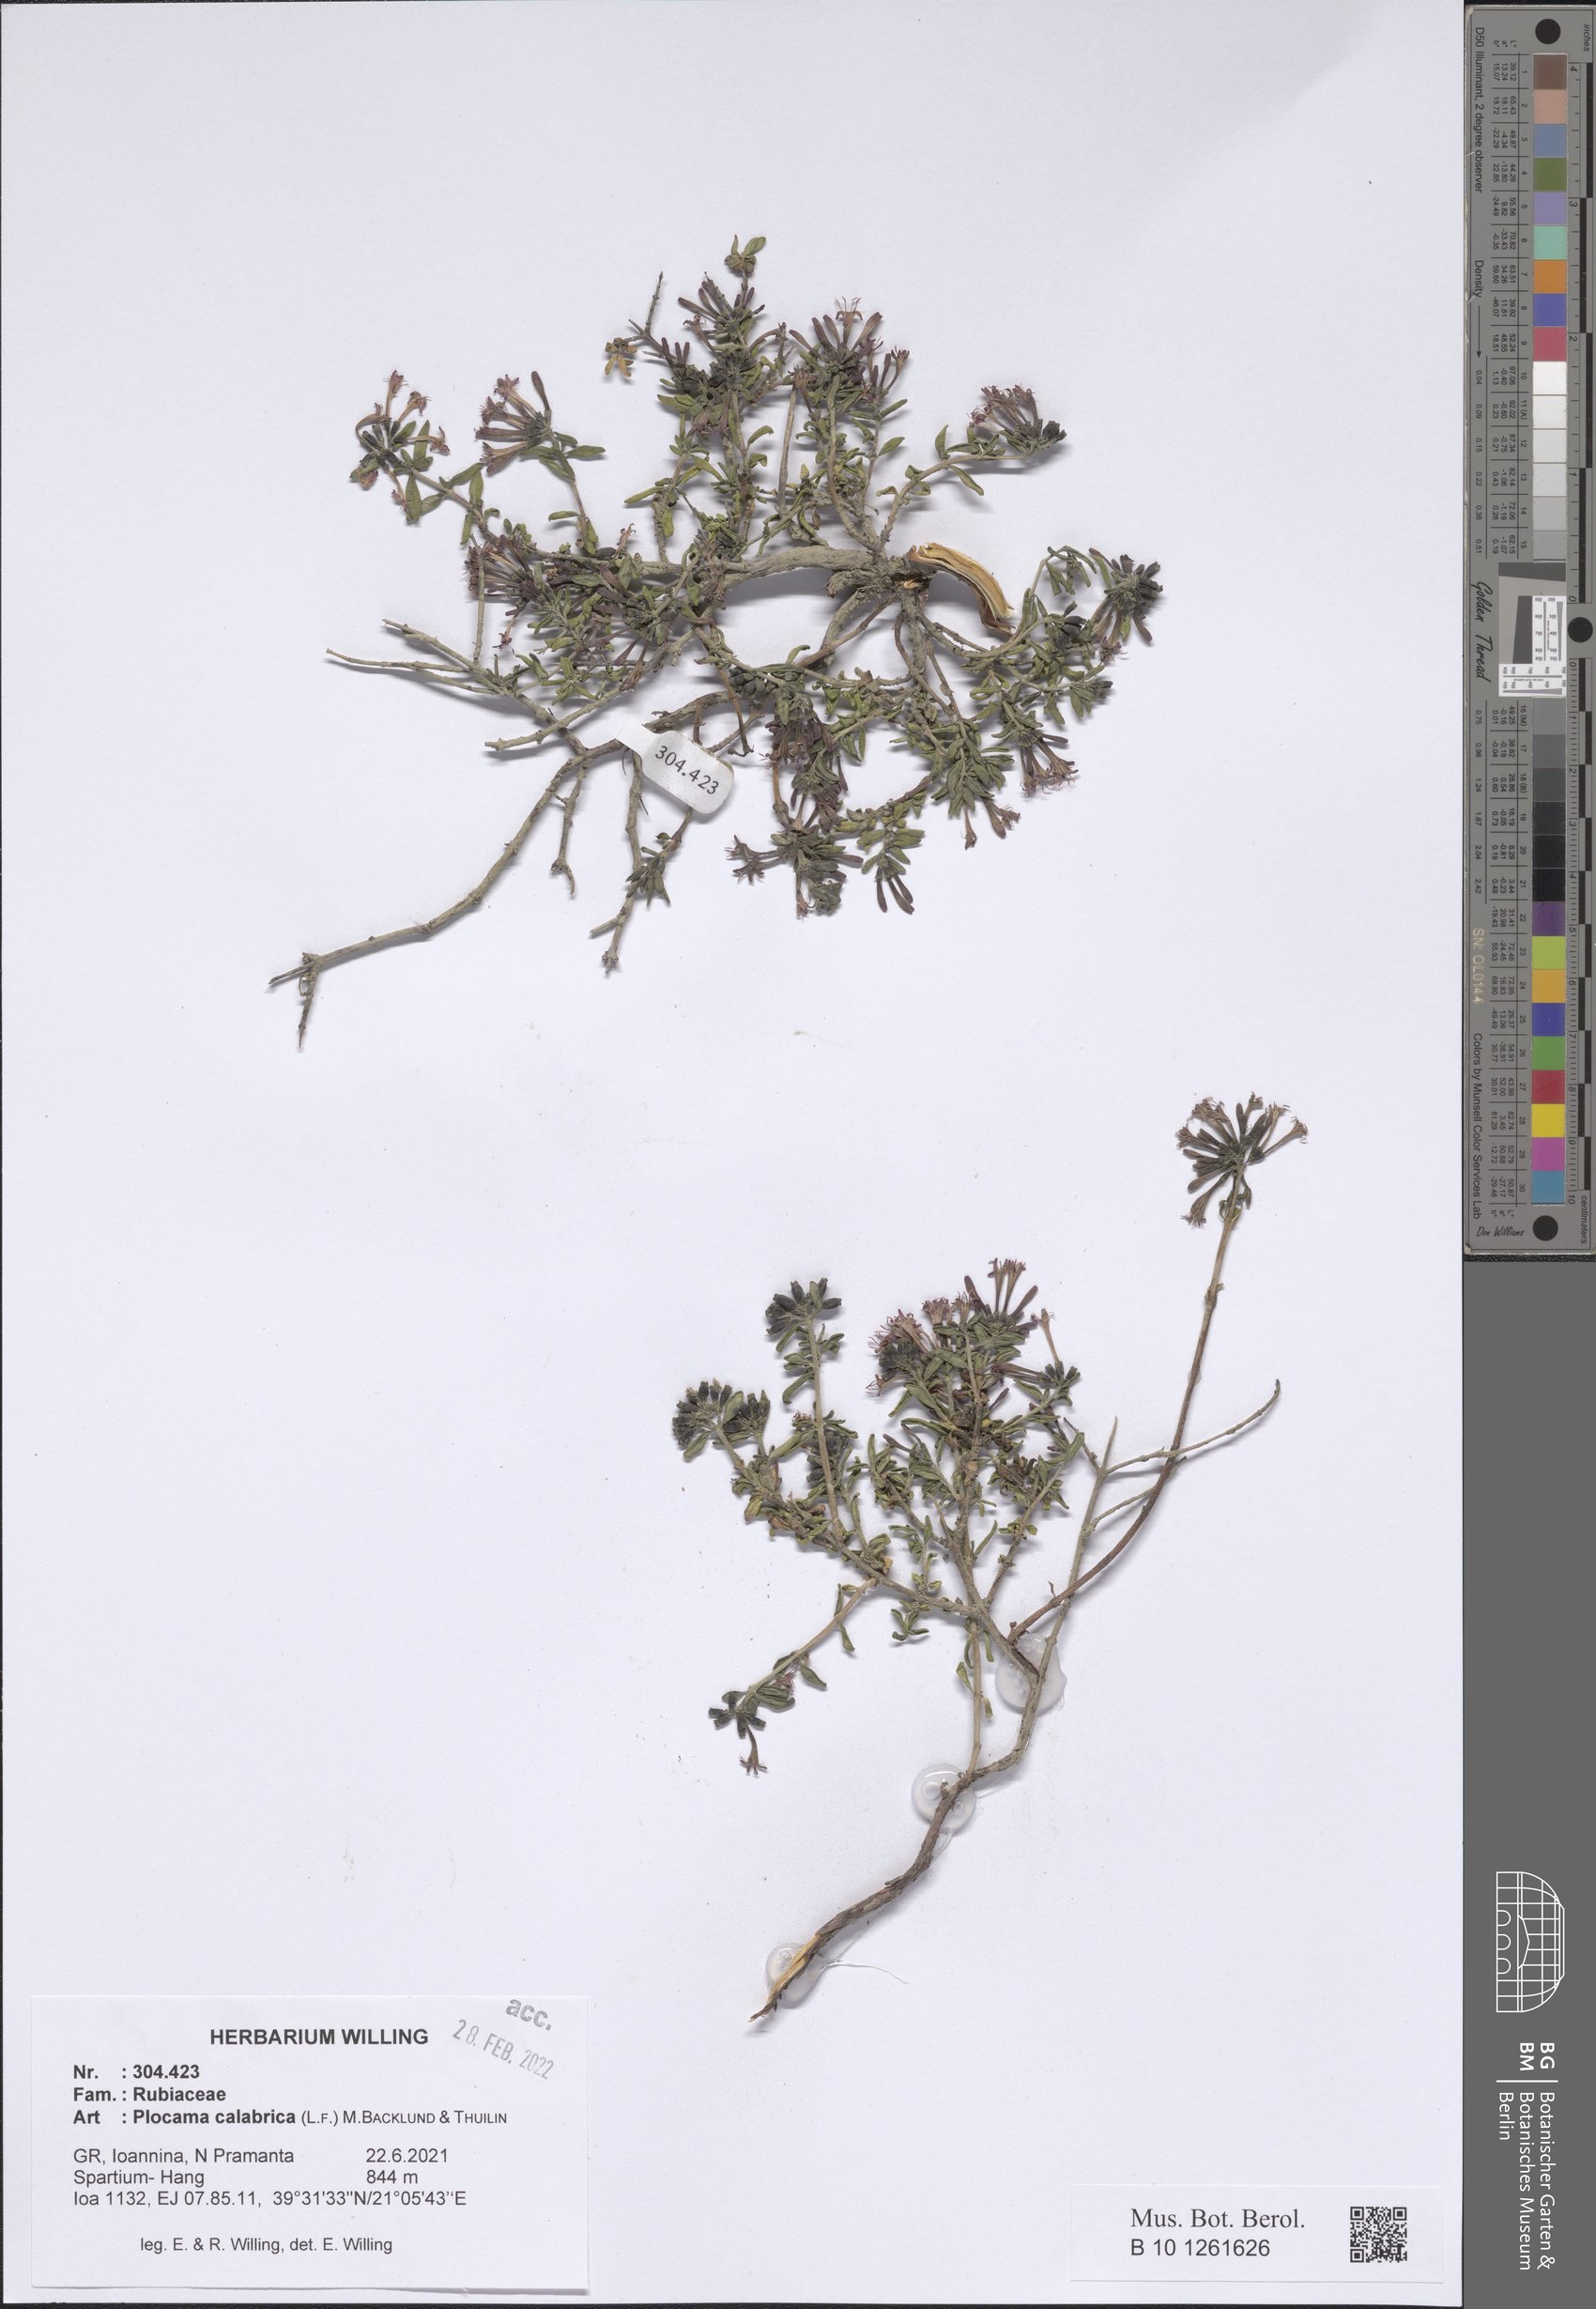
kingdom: Plantae
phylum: Tracheophyta
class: Magnoliopsida
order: Gentianales
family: Rubiaceae
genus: Plocama
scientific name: Plocama calabrica
